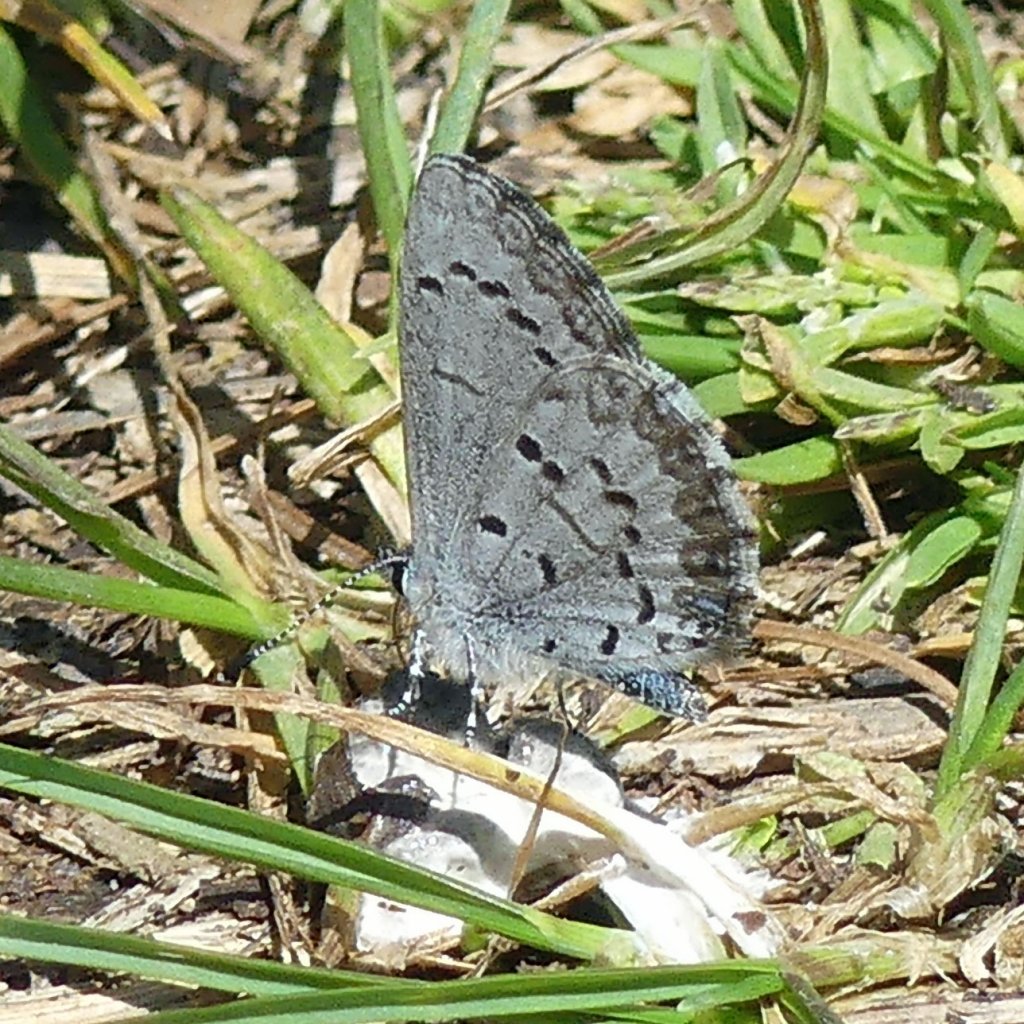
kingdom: Animalia
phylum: Arthropoda
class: Insecta
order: Lepidoptera
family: Lycaenidae
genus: Celastrina
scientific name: Celastrina lucia
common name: Northern Spring Azure
